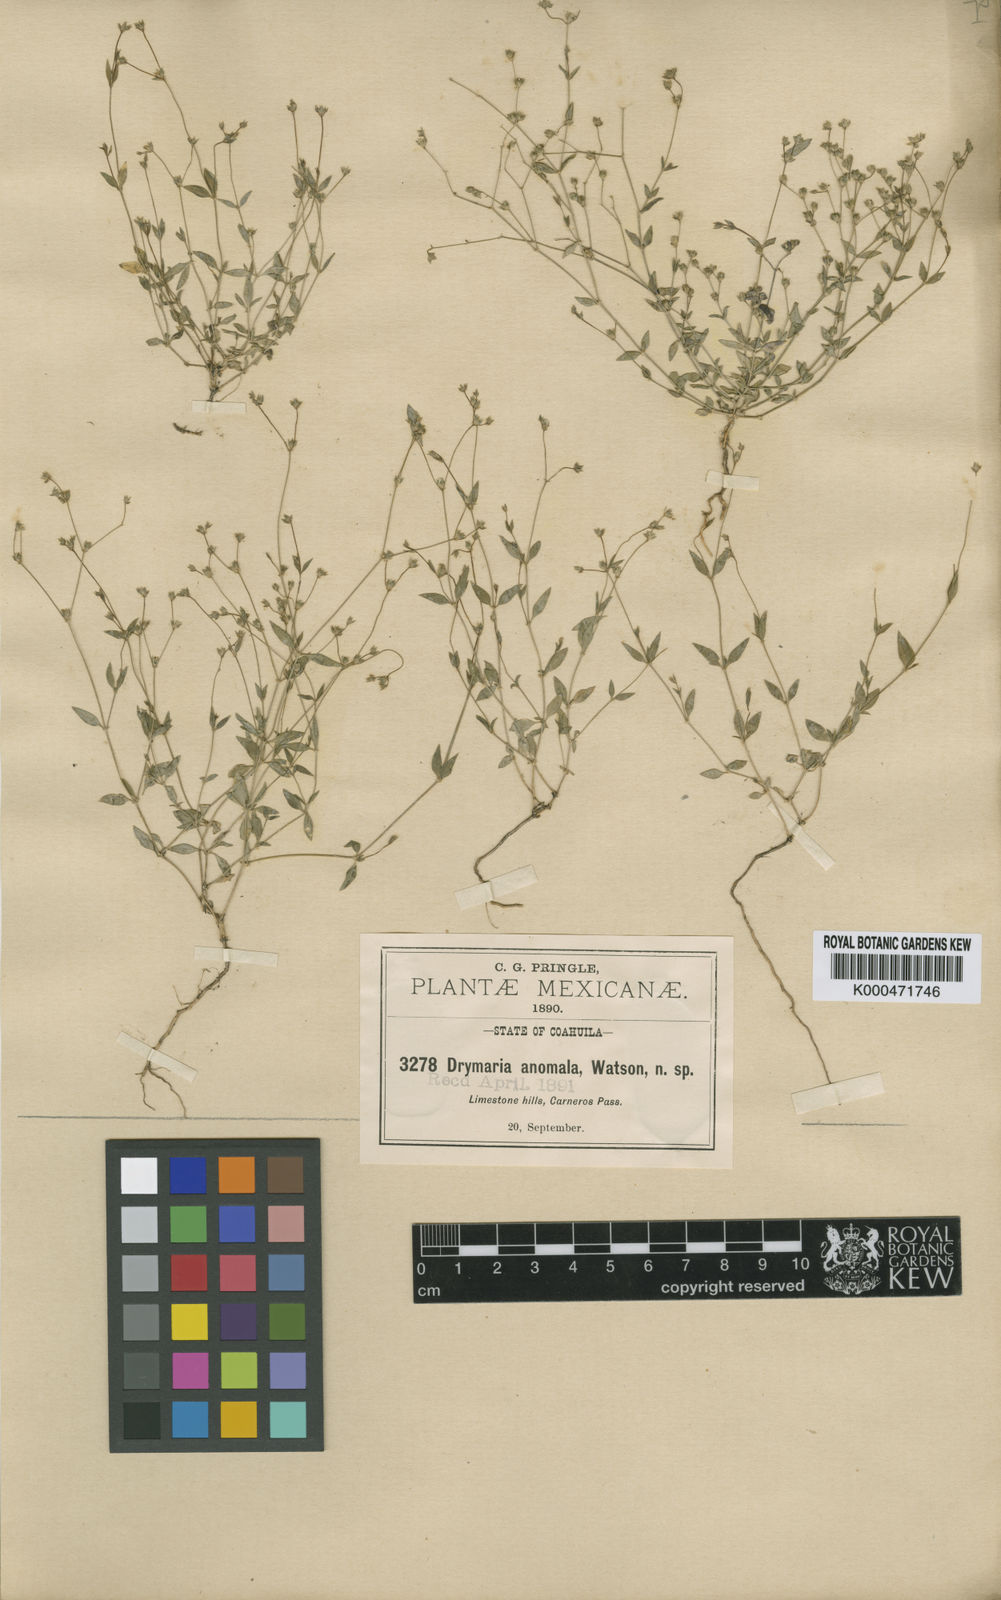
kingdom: Plantae
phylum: Tracheophyta
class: Magnoliopsida
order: Caryophyllales
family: Caryophyllaceae
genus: Drymaria
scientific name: Drymaria anomala
